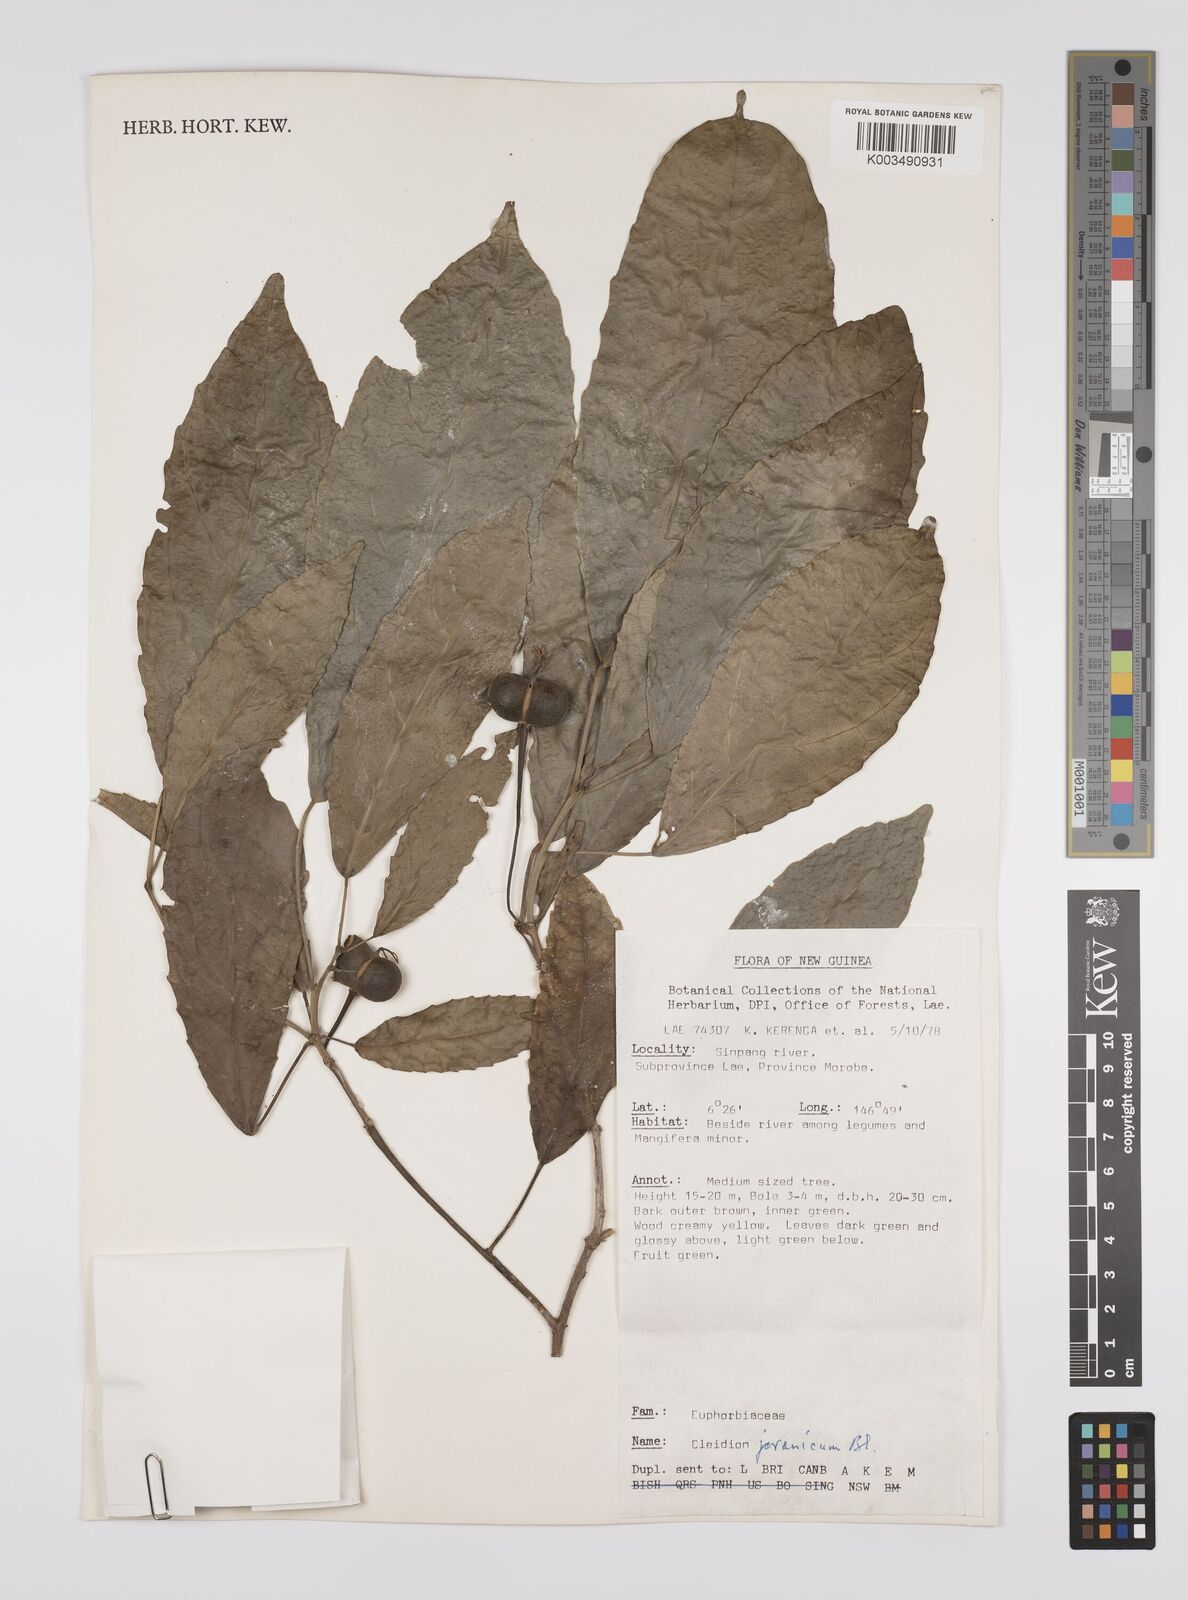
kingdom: Plantae
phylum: Tracheophyta
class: Magnoliopsida
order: Malpighiales
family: Euphorbiaceae
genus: Cleidion
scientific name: Cleidion javanicum
